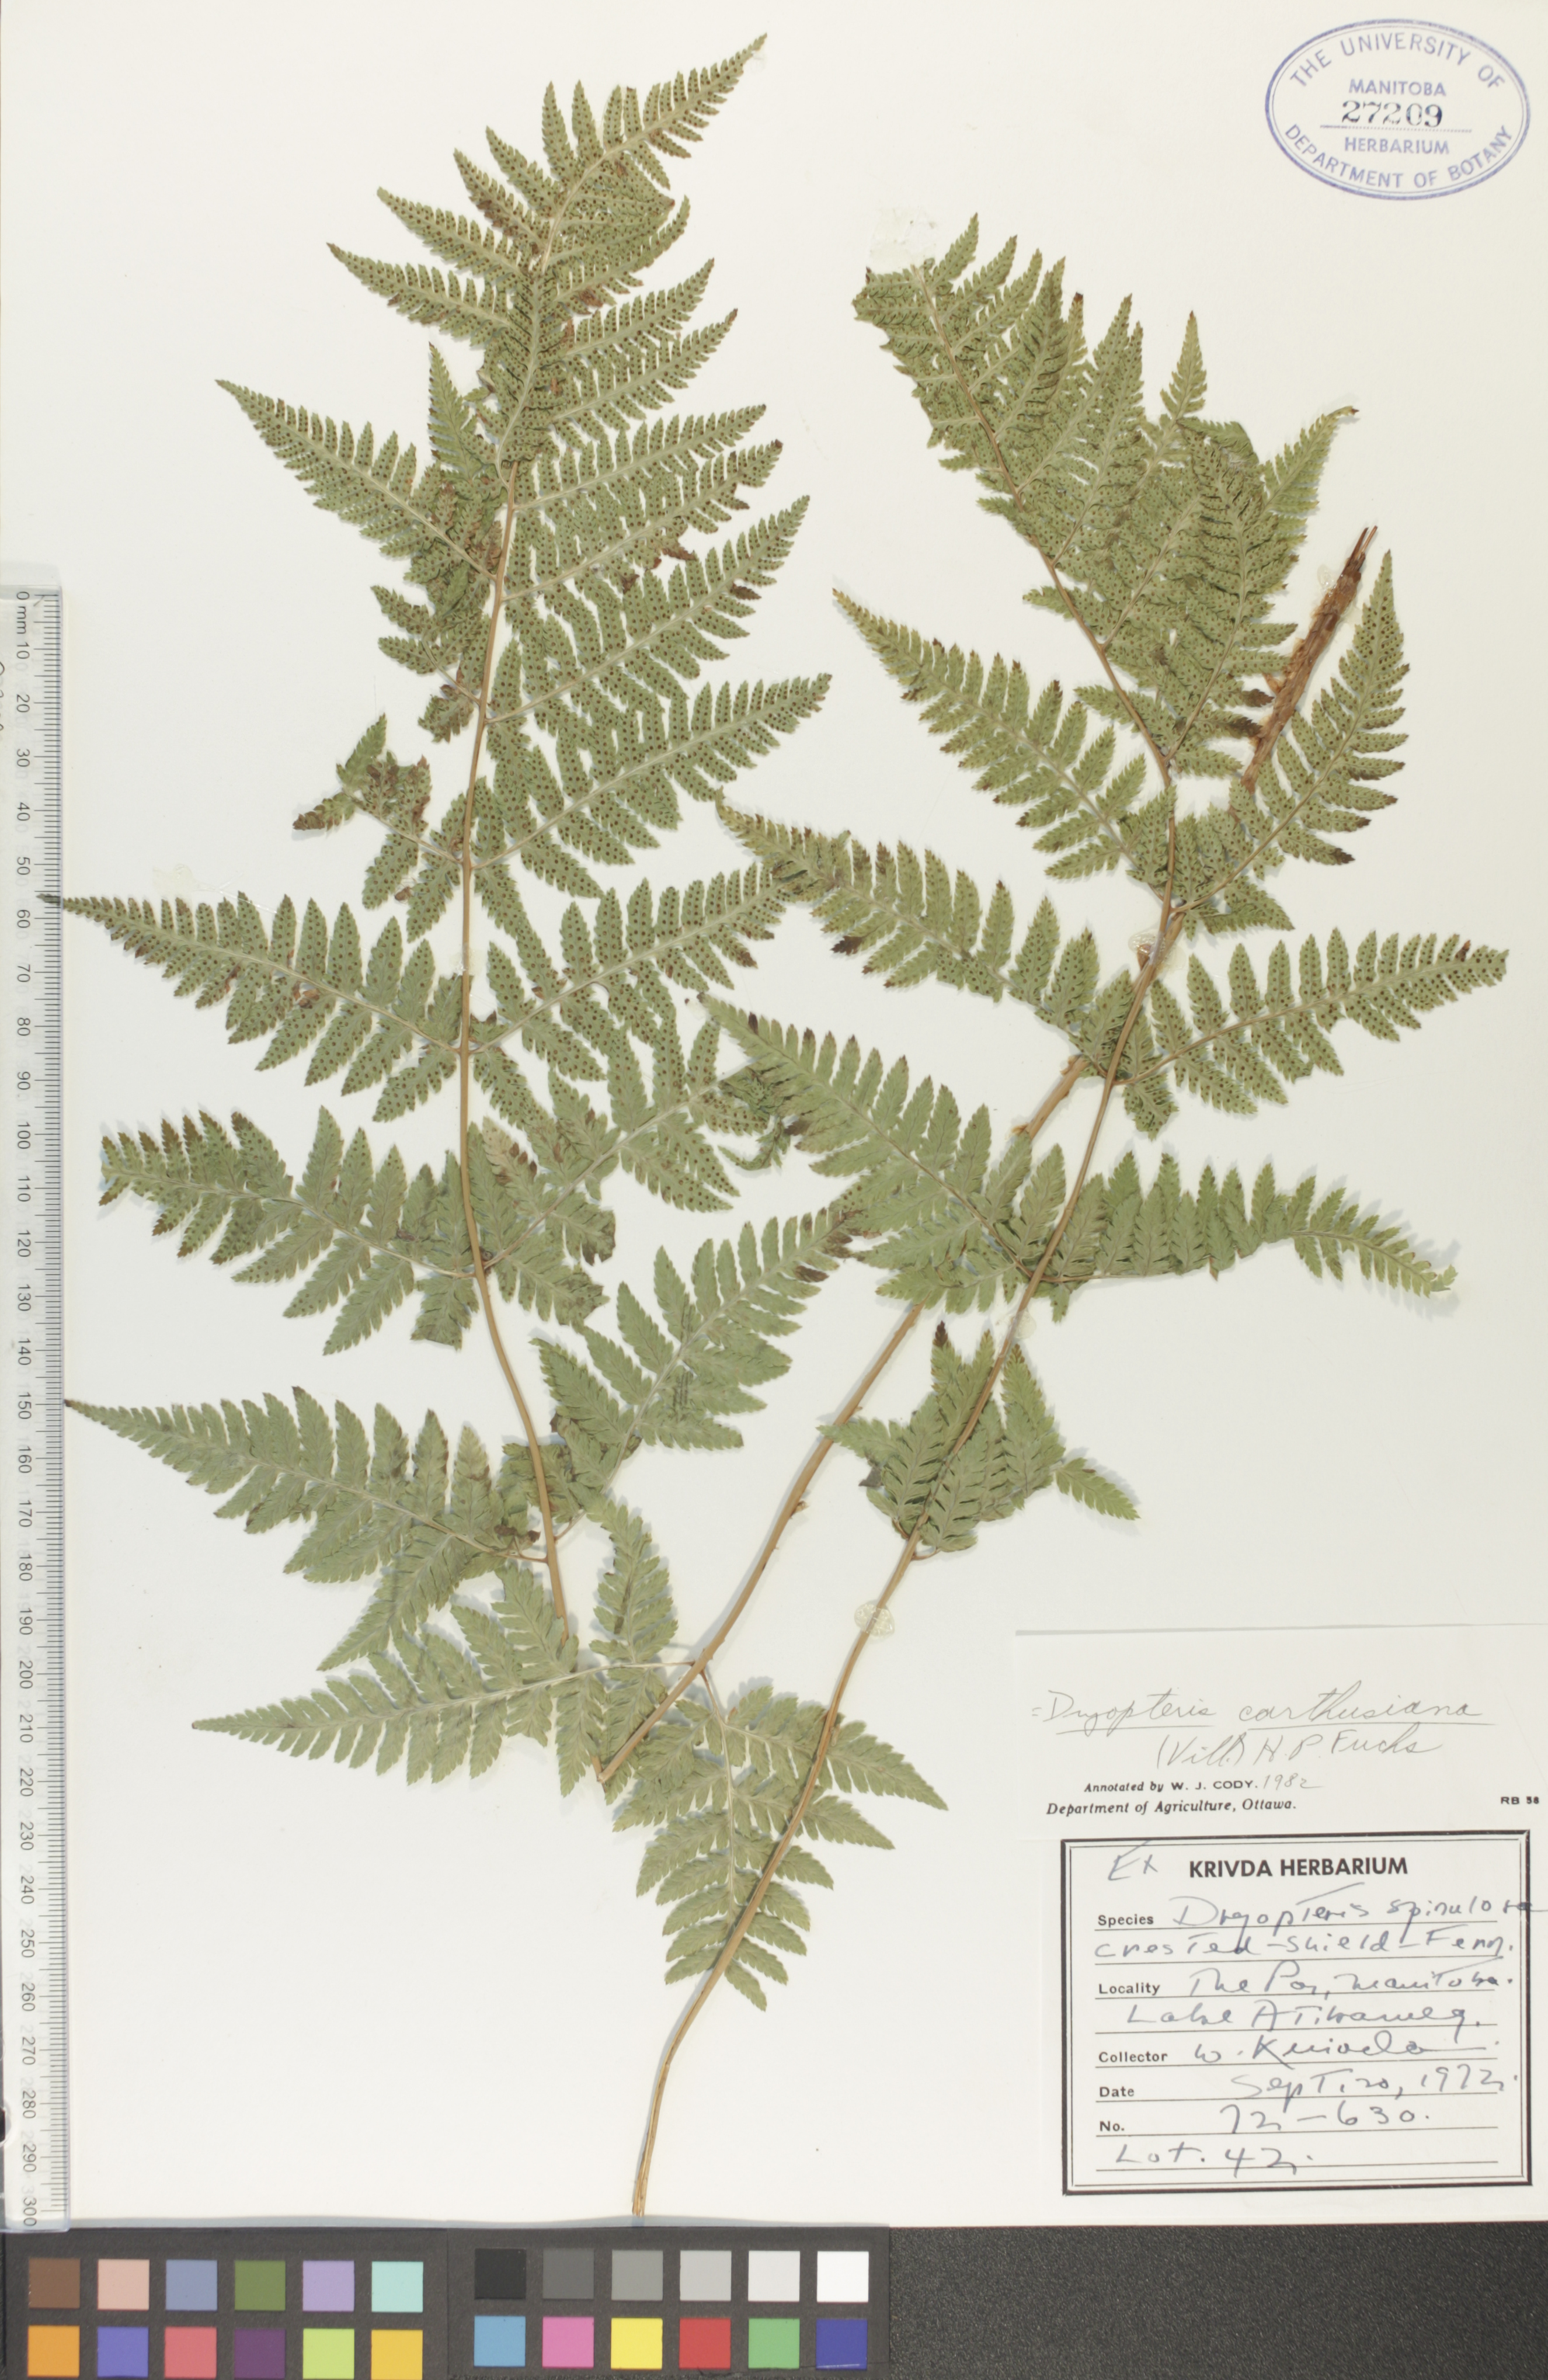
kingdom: Plantae
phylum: Tracheophyta
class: Polypodiopsida
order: Polypodiales
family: Dryopteridaceae
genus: Dryopteris
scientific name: Dryopteris carthusiana
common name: Narrow buckler-fern
